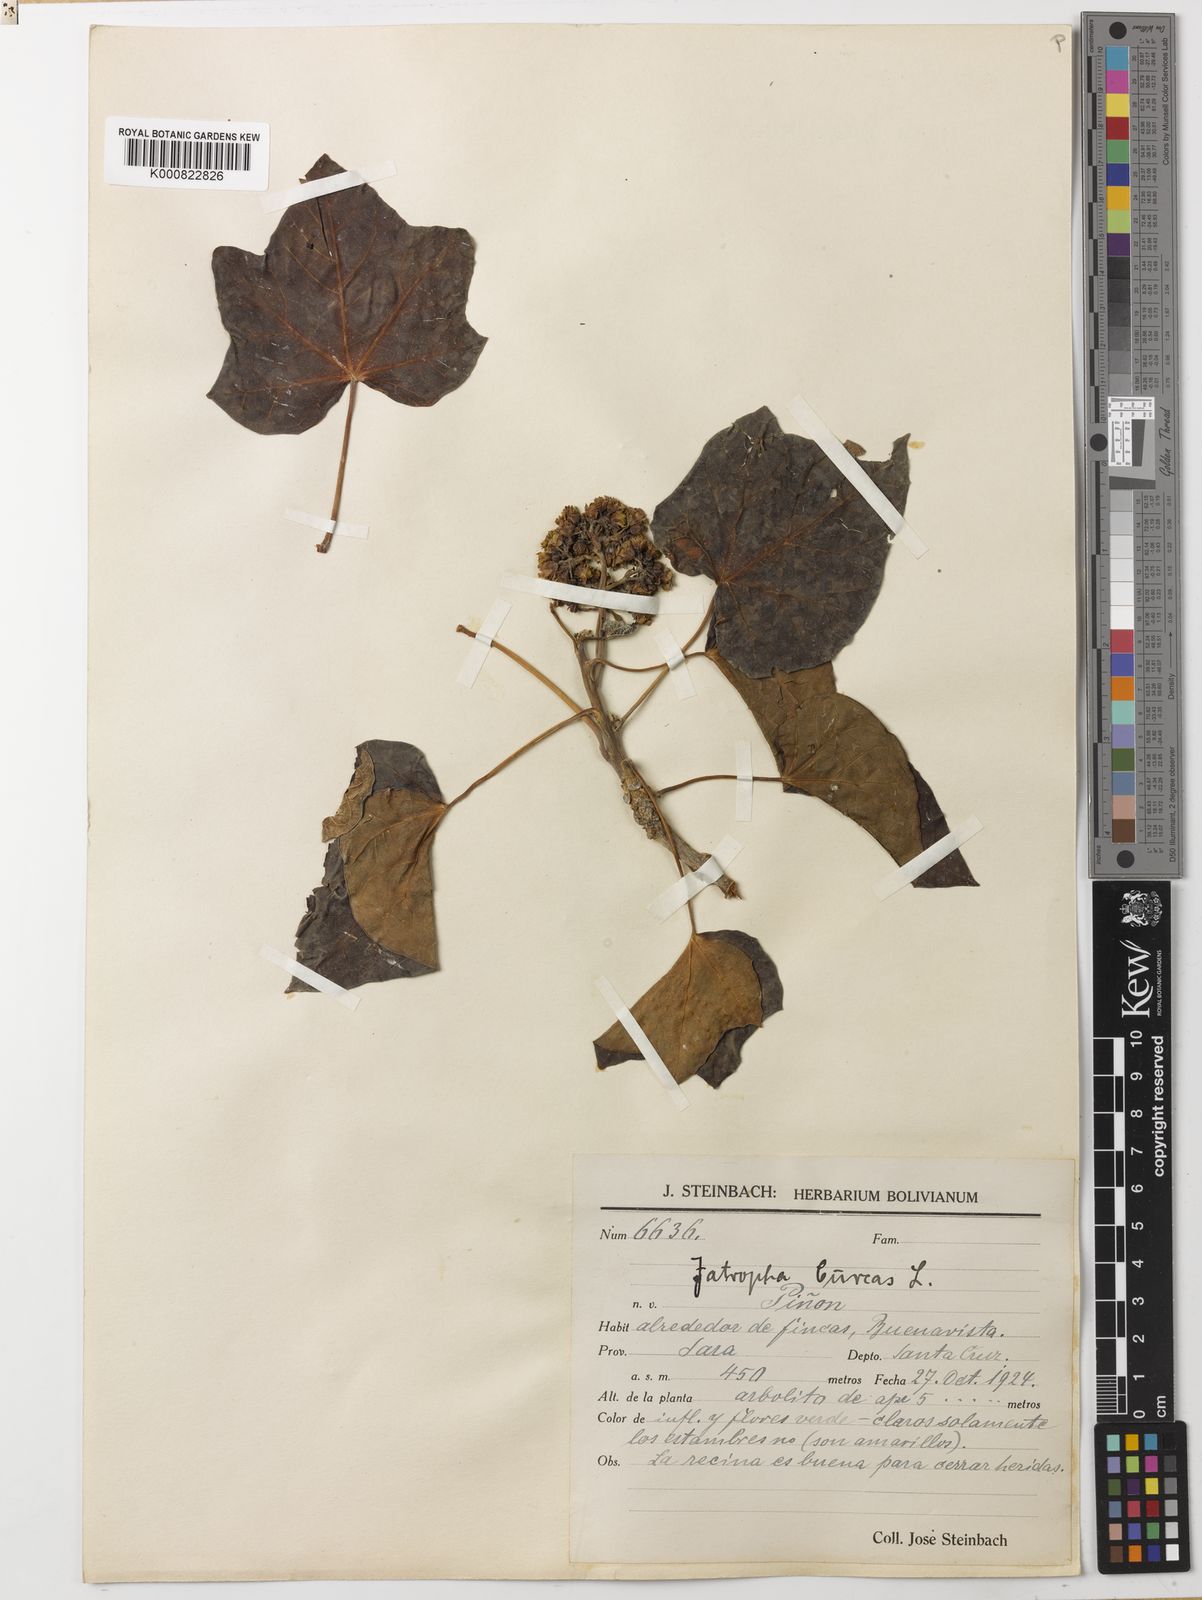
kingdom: Plantae
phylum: Tracheophyta
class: Magnoliopsida
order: Malpighiales
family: Euphorbiaceae
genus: Jatropha
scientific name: Jatropha curcas
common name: Barbados nut
